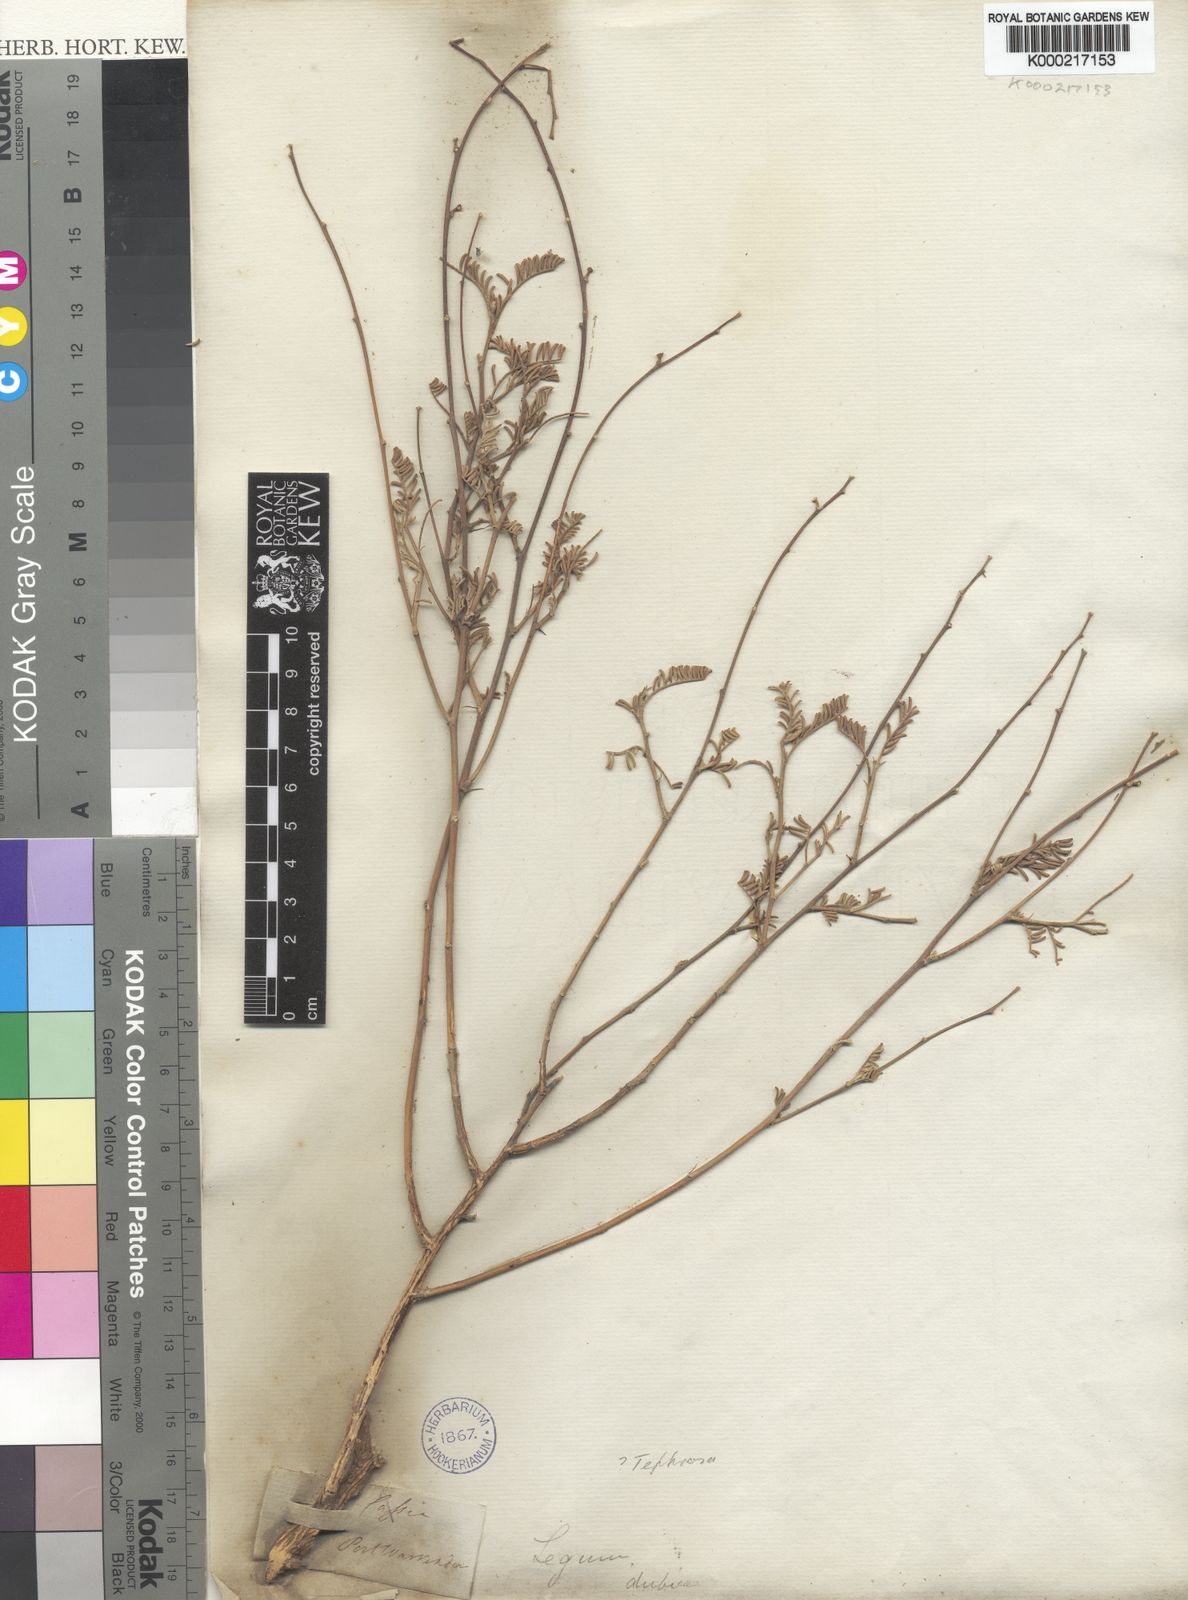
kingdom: Plantae
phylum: Tracheophyta
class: Magnoliopsida
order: Fabales
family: Fabaceae
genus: Tephrosia
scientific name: Tephrosia
